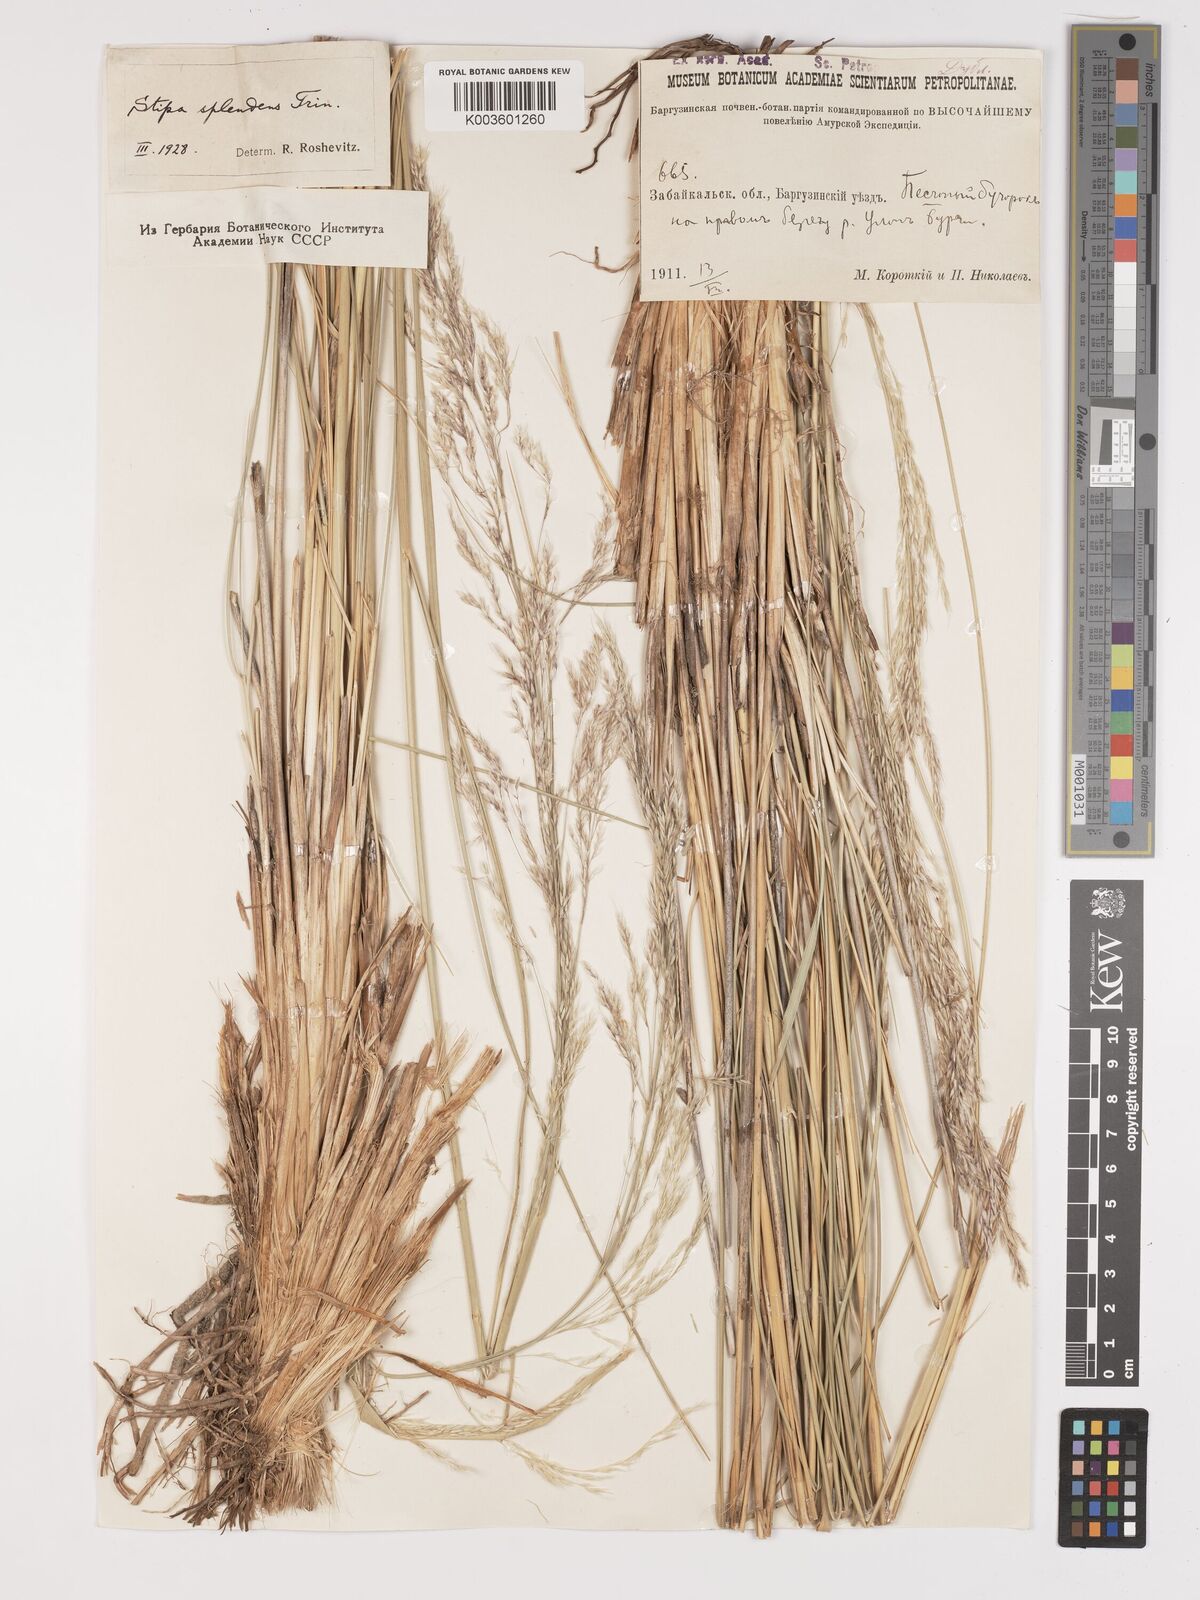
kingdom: Plantae
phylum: Tracheophyta
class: Liliopsida
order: Poales
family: Poaceae
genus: Neotrinia
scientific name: Neotrinia splendens
